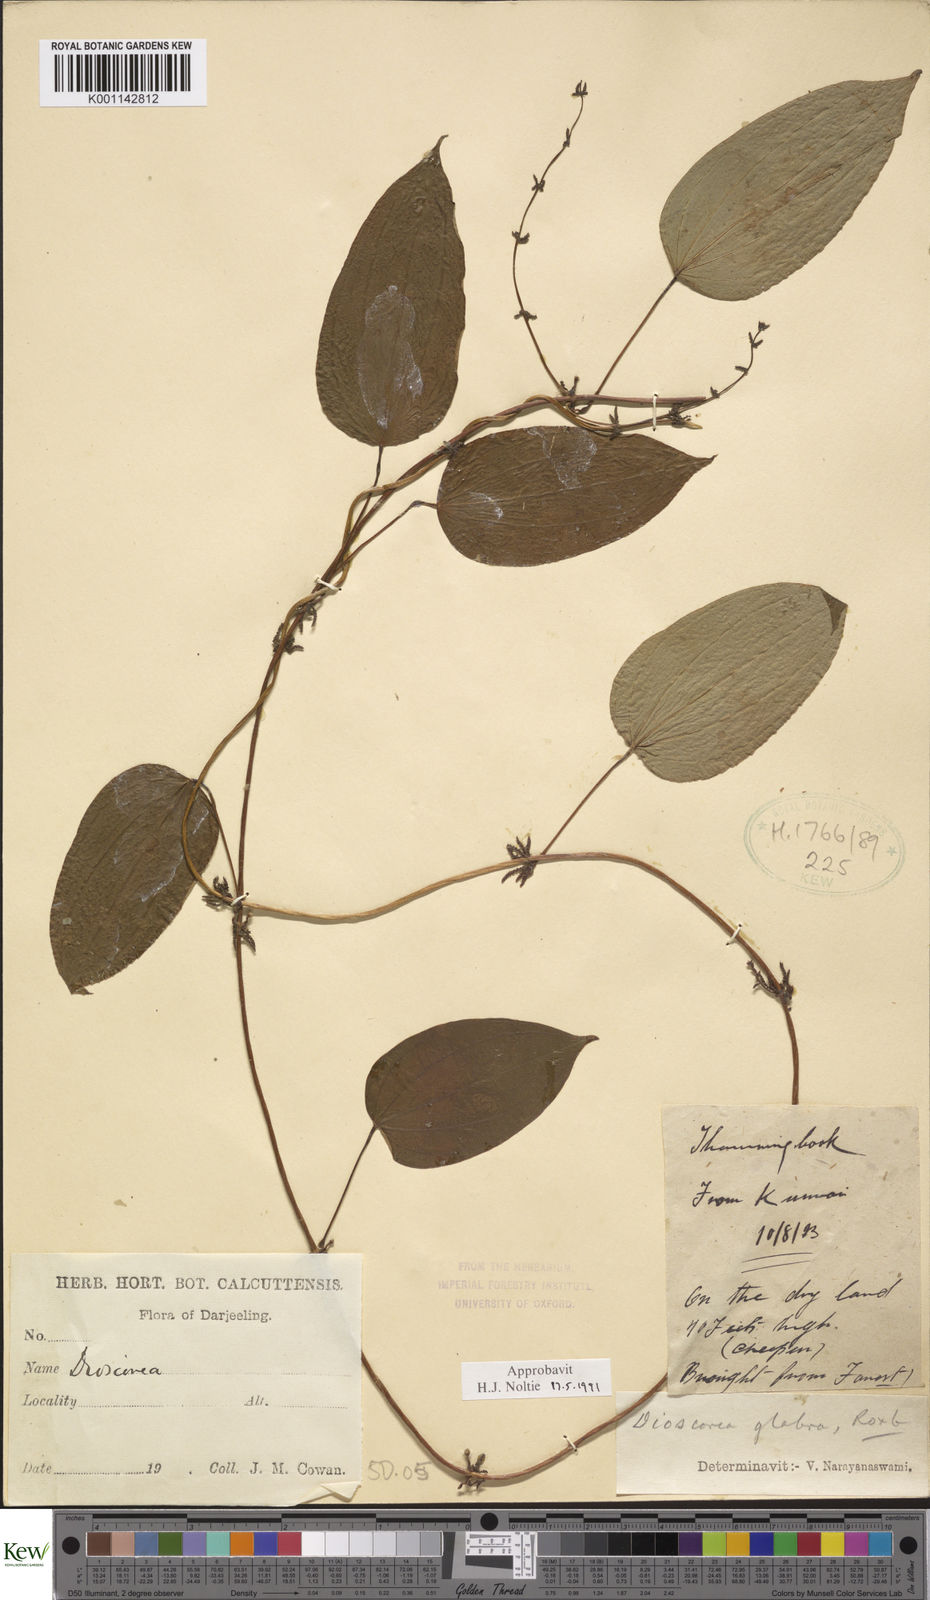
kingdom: Plantae
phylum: Tracheophyta
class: Liliopsida
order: Dioscoreales
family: Dioscoreaceae
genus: Dioscorea
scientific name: Dioscorea glabra
